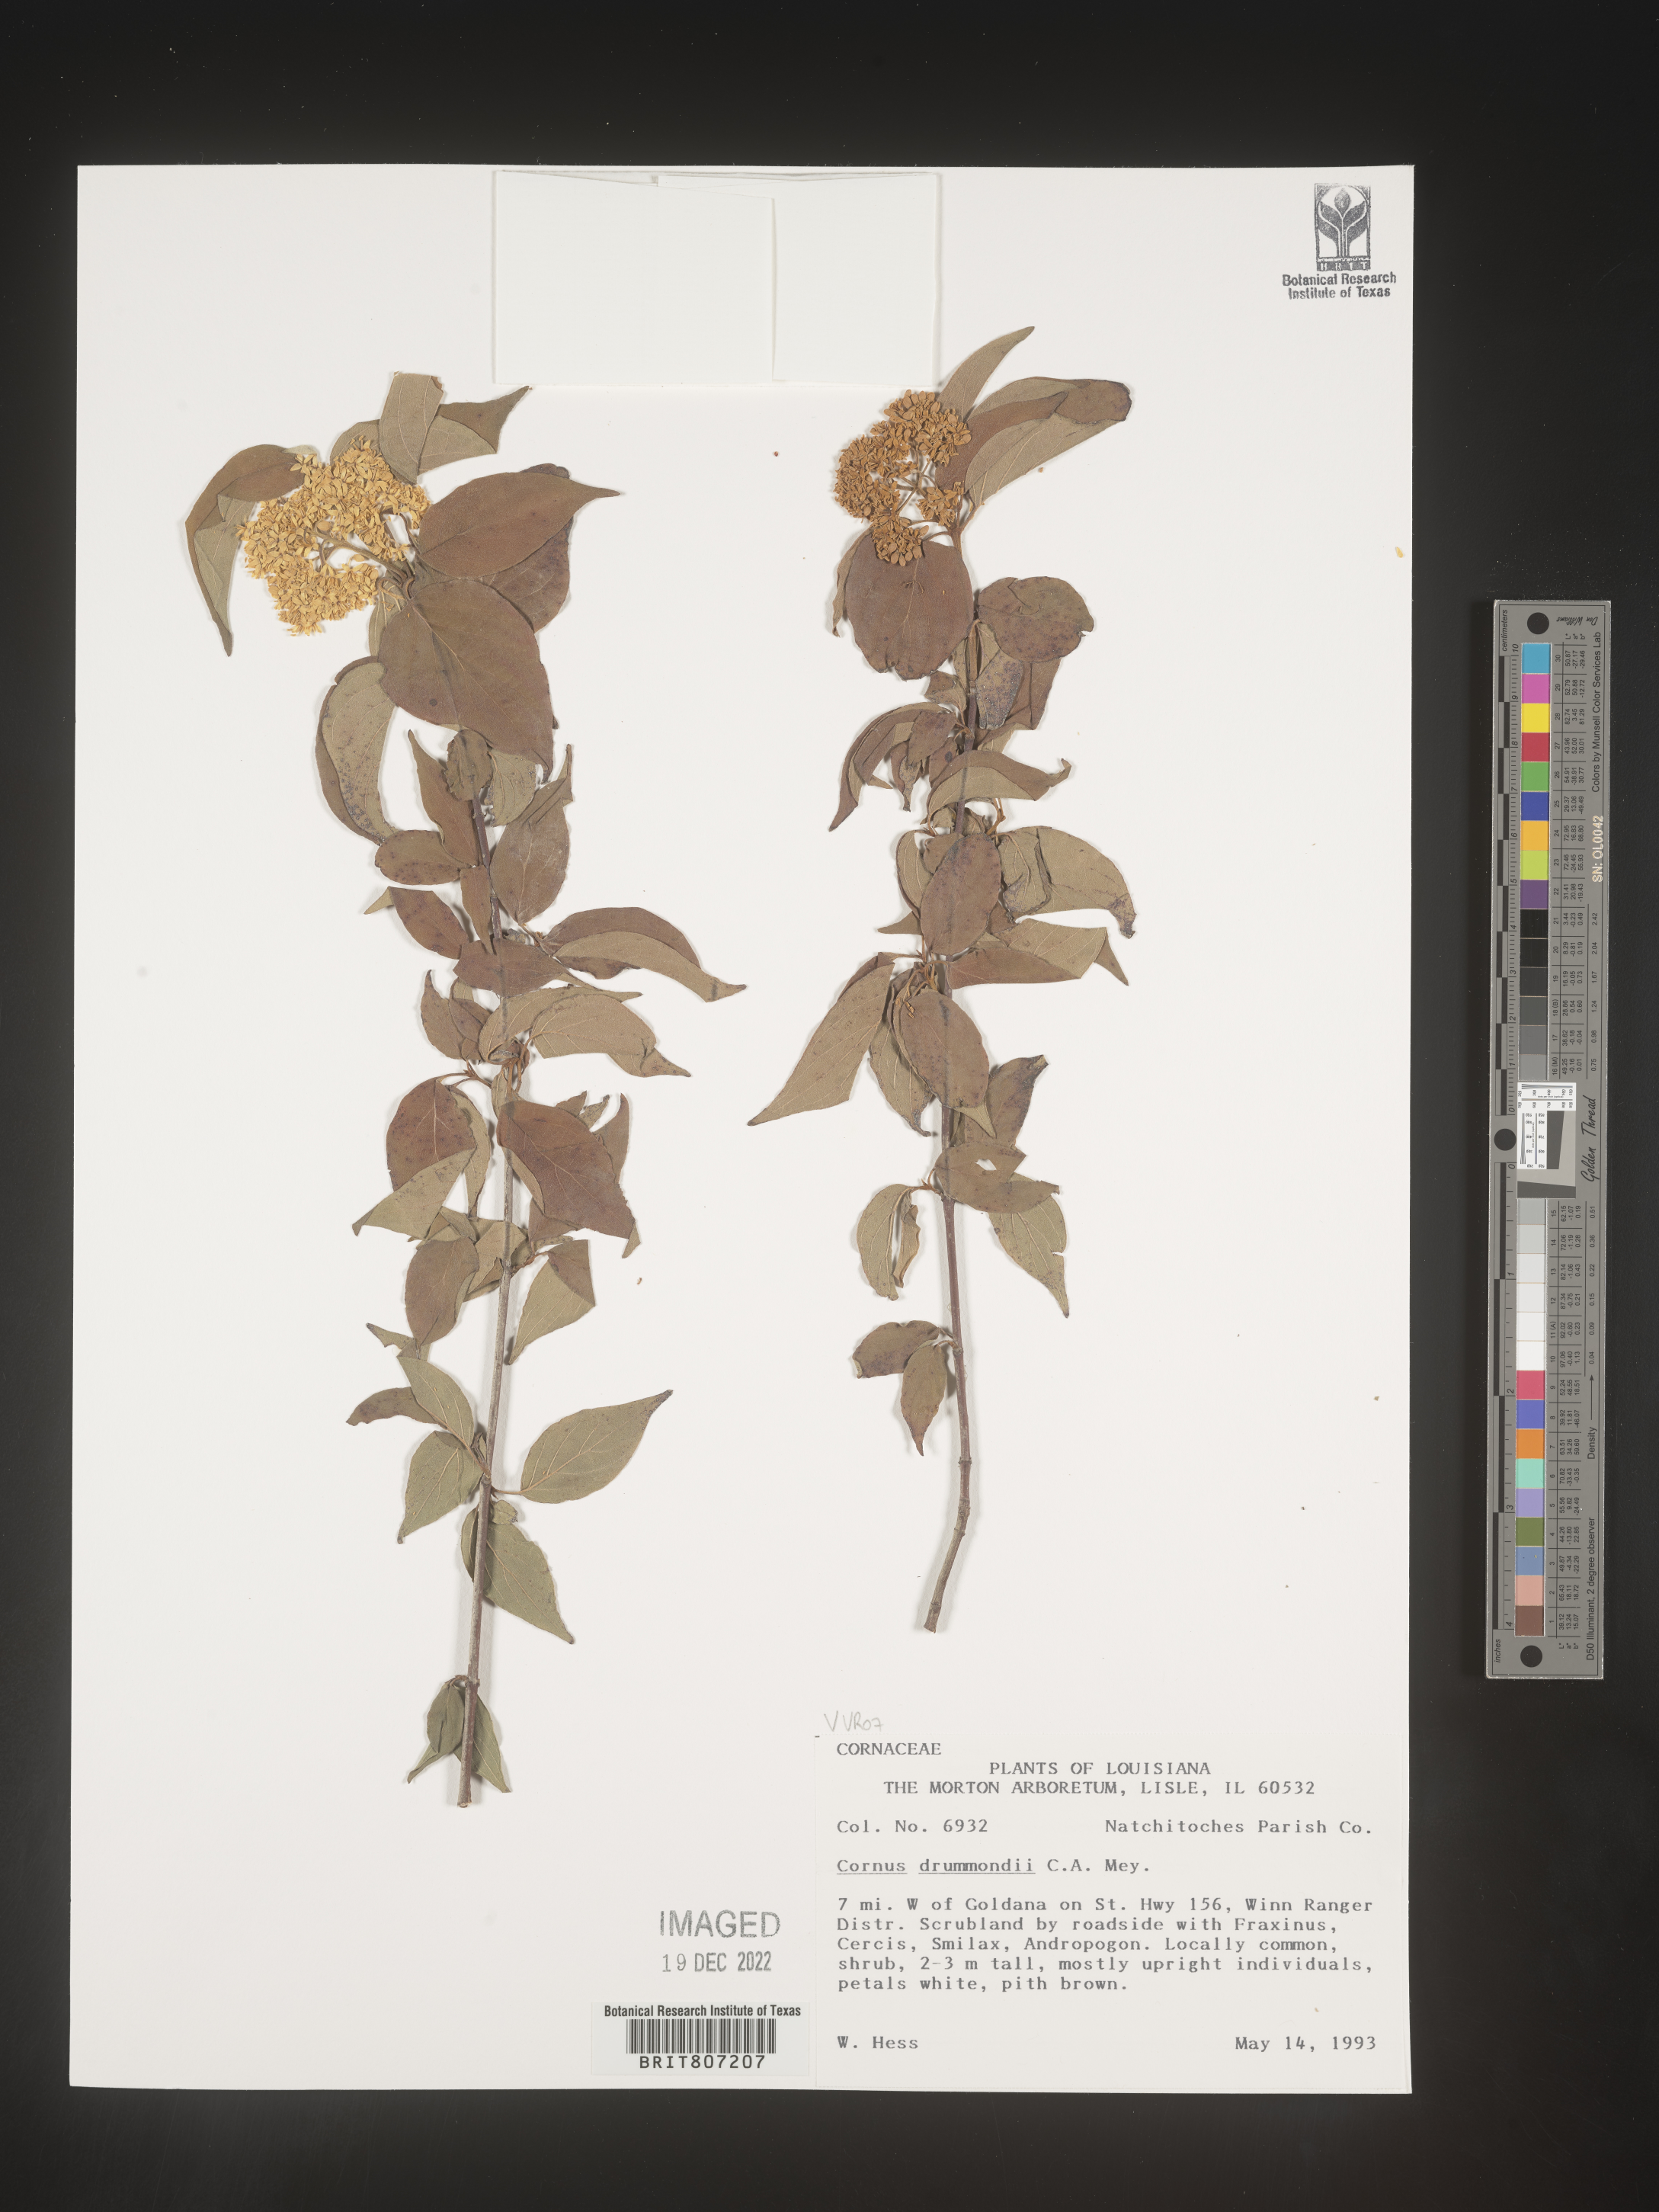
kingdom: Plantae
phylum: Tracheophyta
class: Magnoliopsida
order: Cornales
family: Cornaceae
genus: Cornus
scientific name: Cornus drummondii
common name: Rough-leaf dogwood
